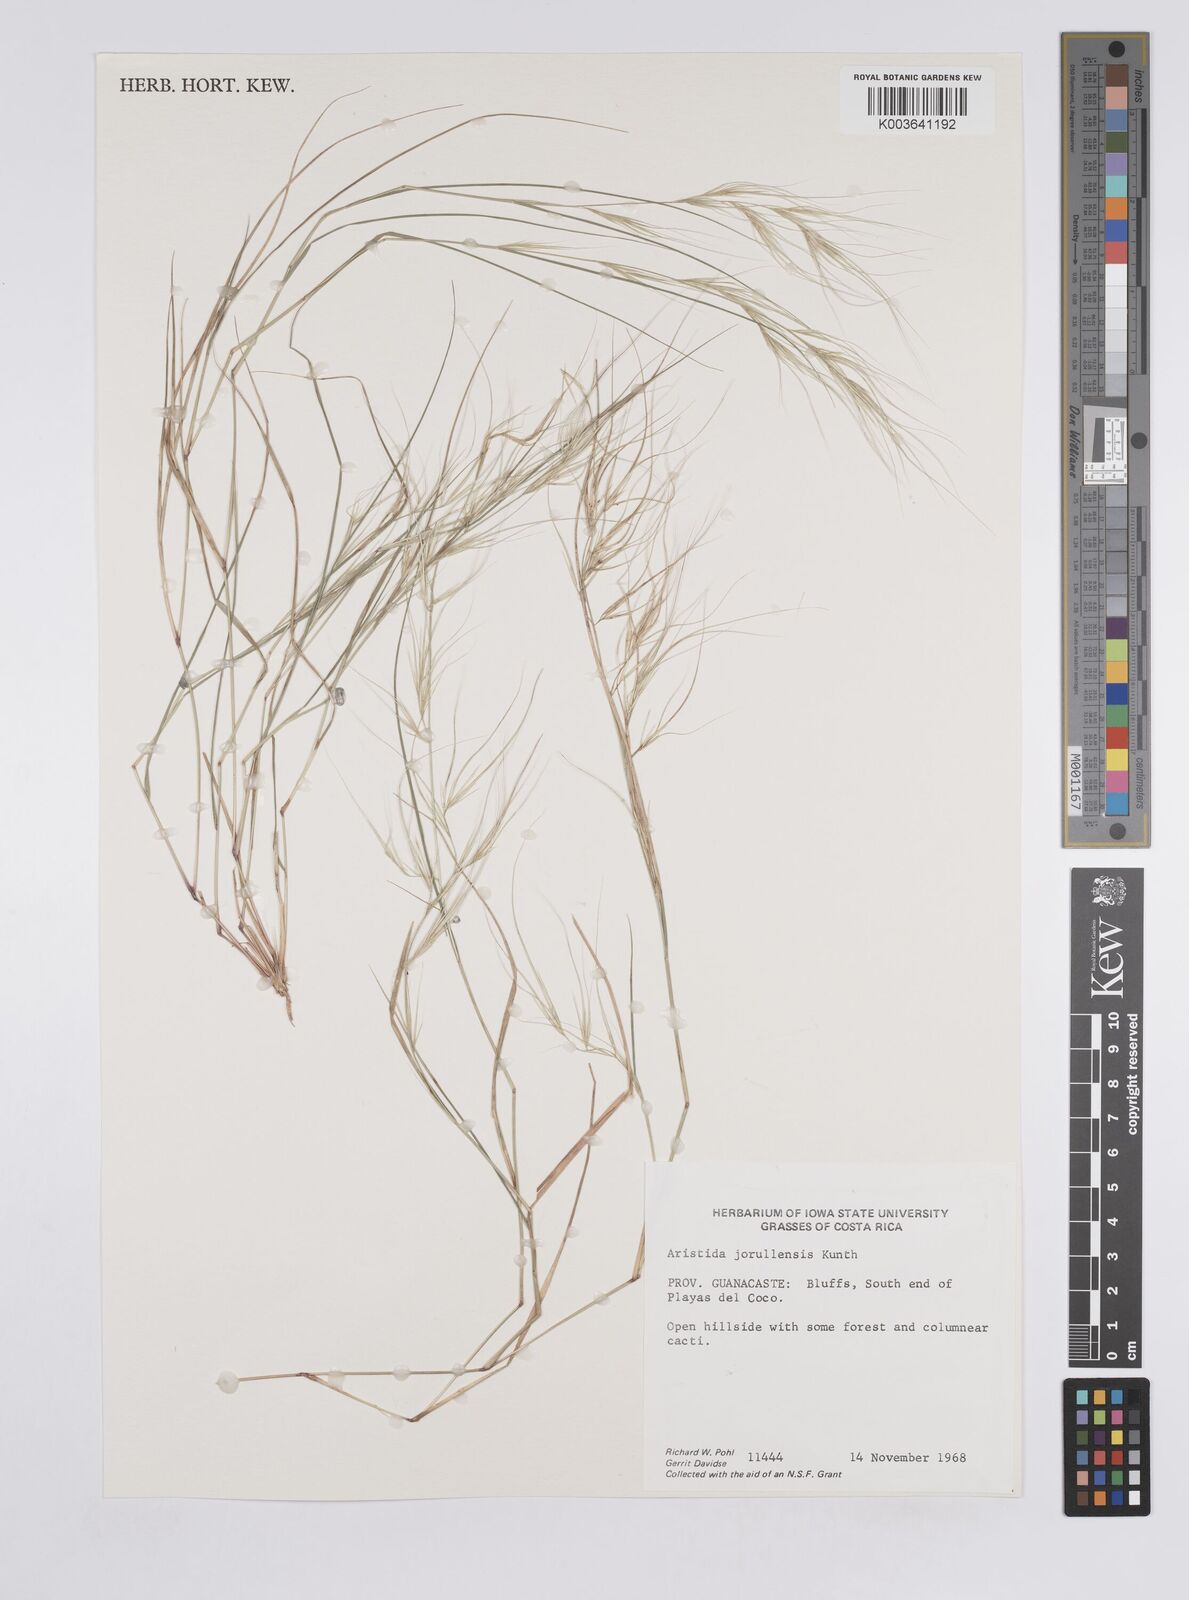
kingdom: Plantae
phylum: Tracheophyta
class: Liliopsida
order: Poales
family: Poaceae
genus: Aristida
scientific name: Aristida jorullensis
